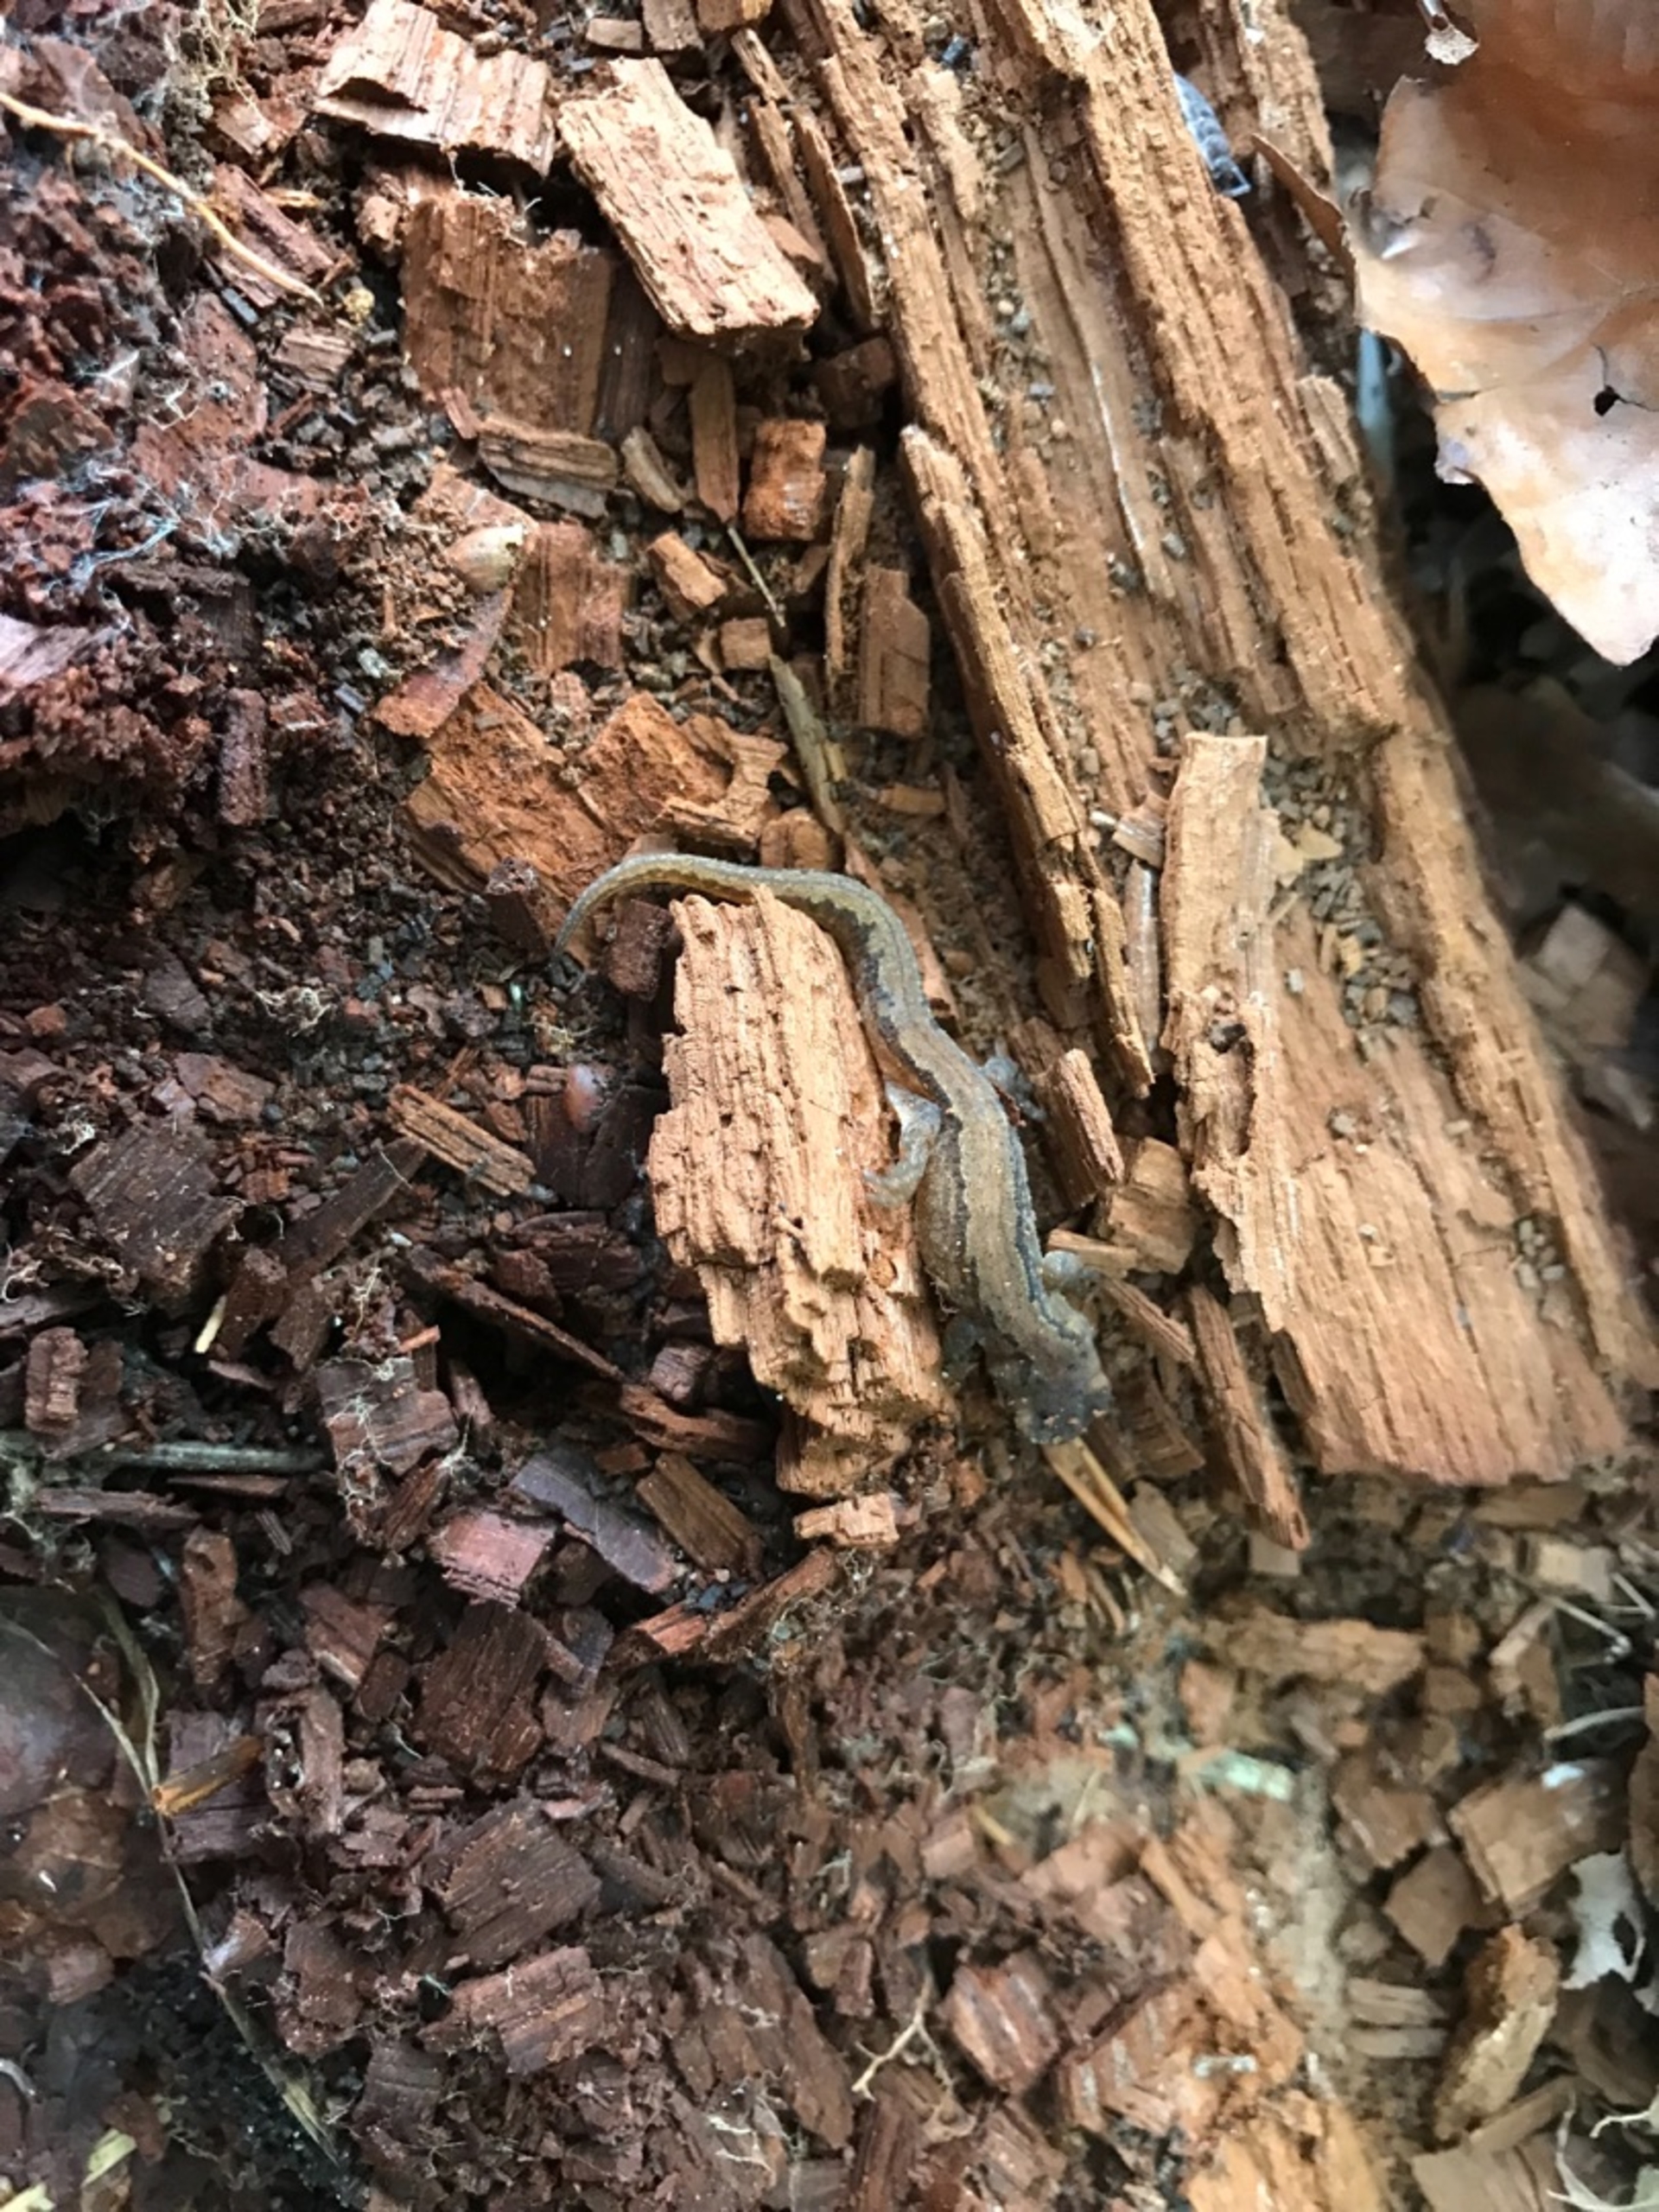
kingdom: Animalia
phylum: Chordata
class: Amphibia
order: Caudata
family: Salamandridae
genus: Lissotriton
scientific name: Lissotriton vulgaris
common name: Lille vandsalamander
